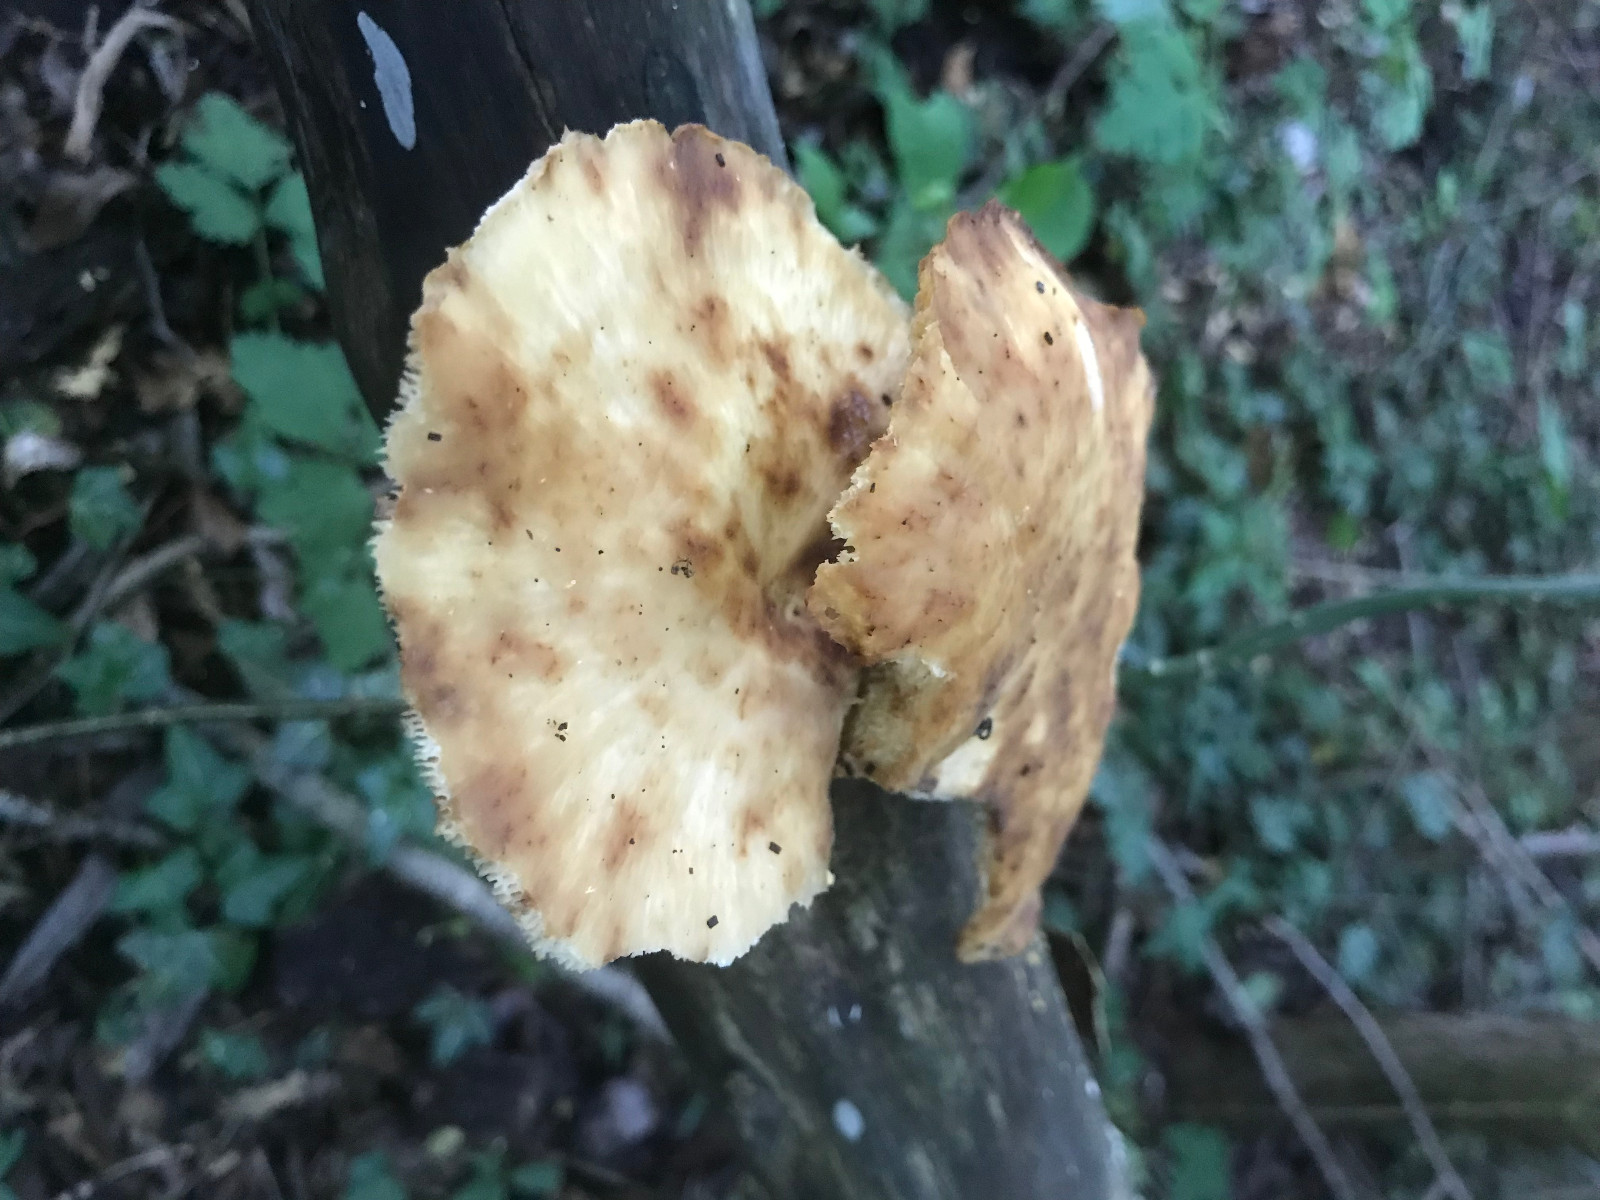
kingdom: Fungi
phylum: Basidiomycota
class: Agaricomycetes
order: Polyporales
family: Polyporaceae
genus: Cerioporus
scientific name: Cerioporus varius
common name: foranderlig stilkporesvamp
